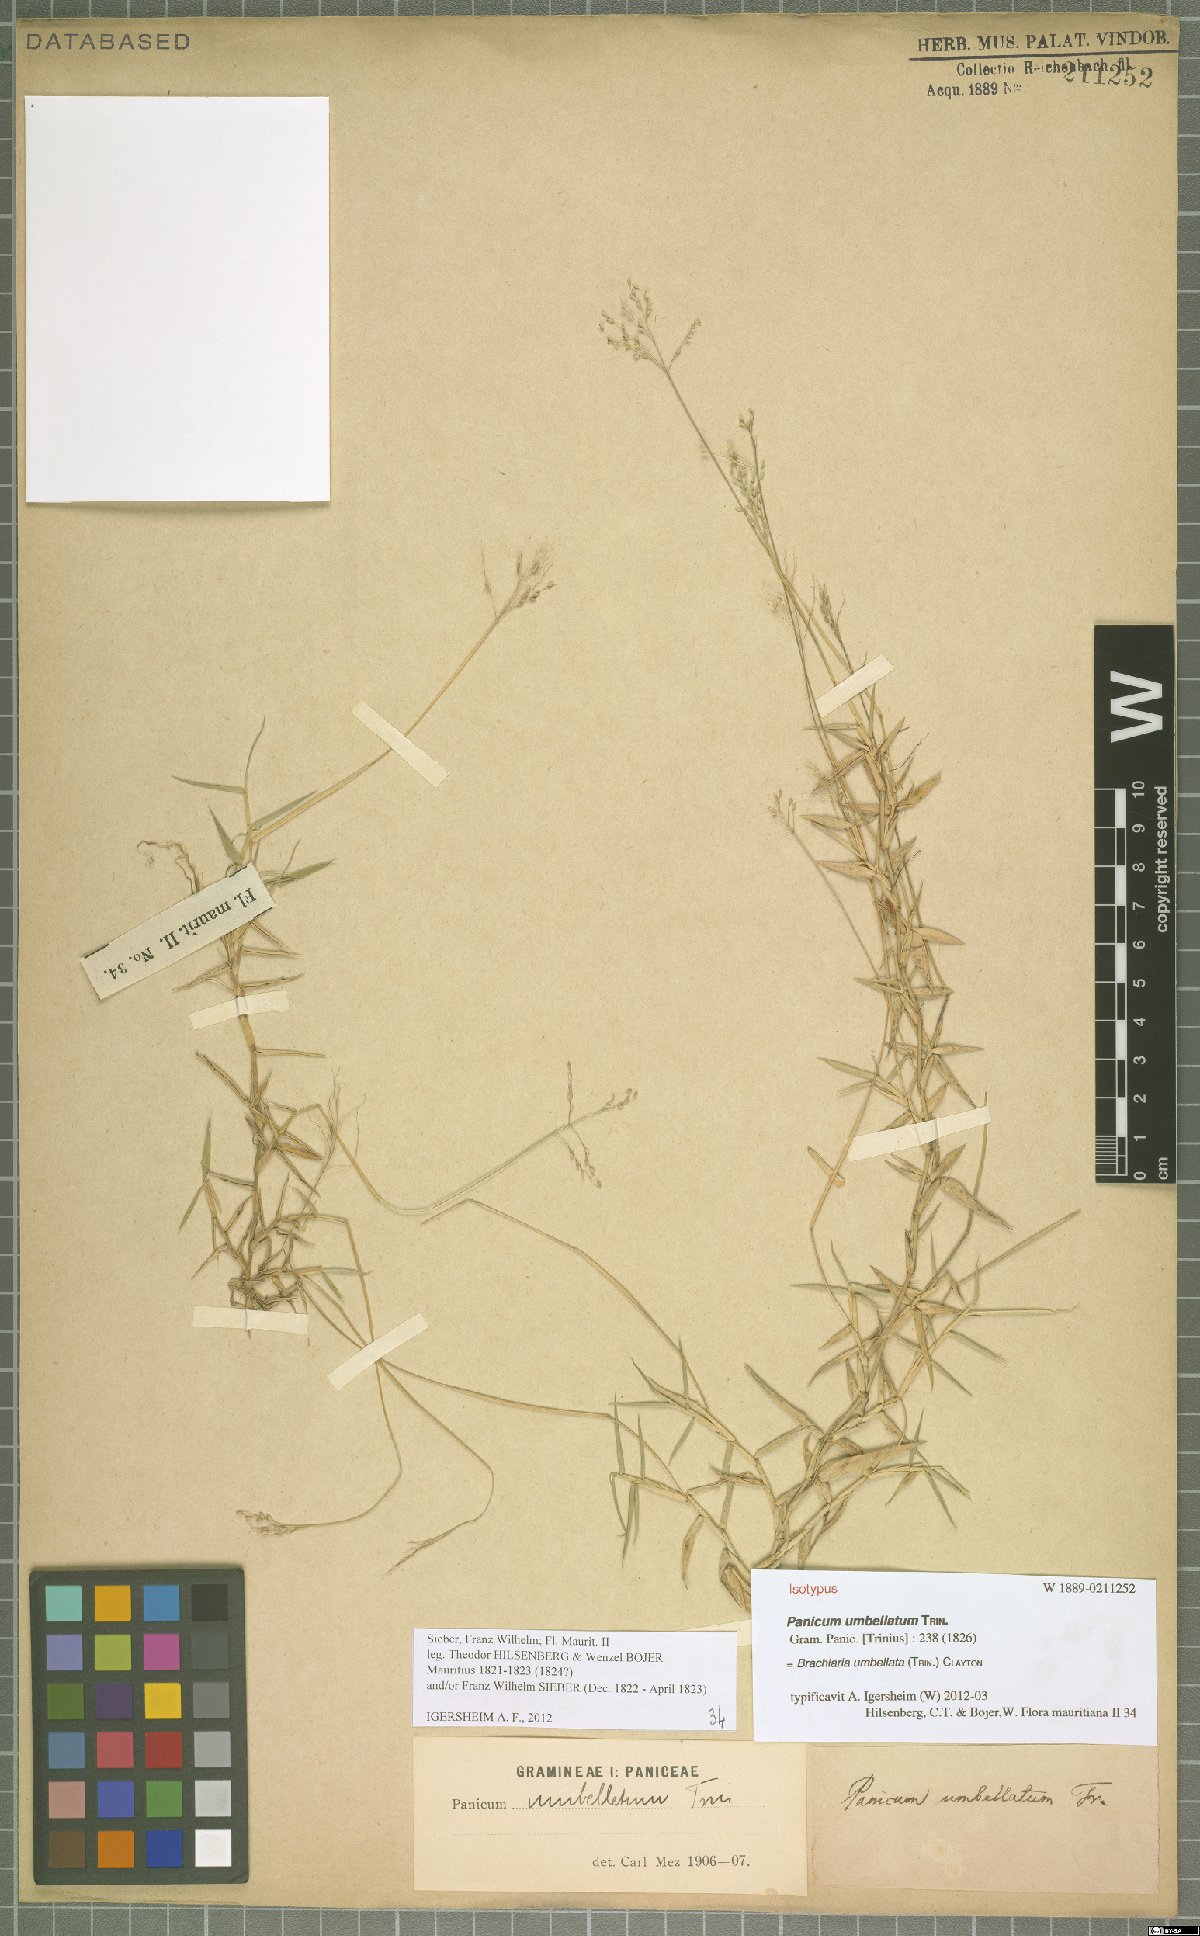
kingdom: Plantae
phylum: Tracheophyta
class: Liliopsida
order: Poales
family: Poaceae
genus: Urochloa
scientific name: Urochloa Brachiaria umbellata
